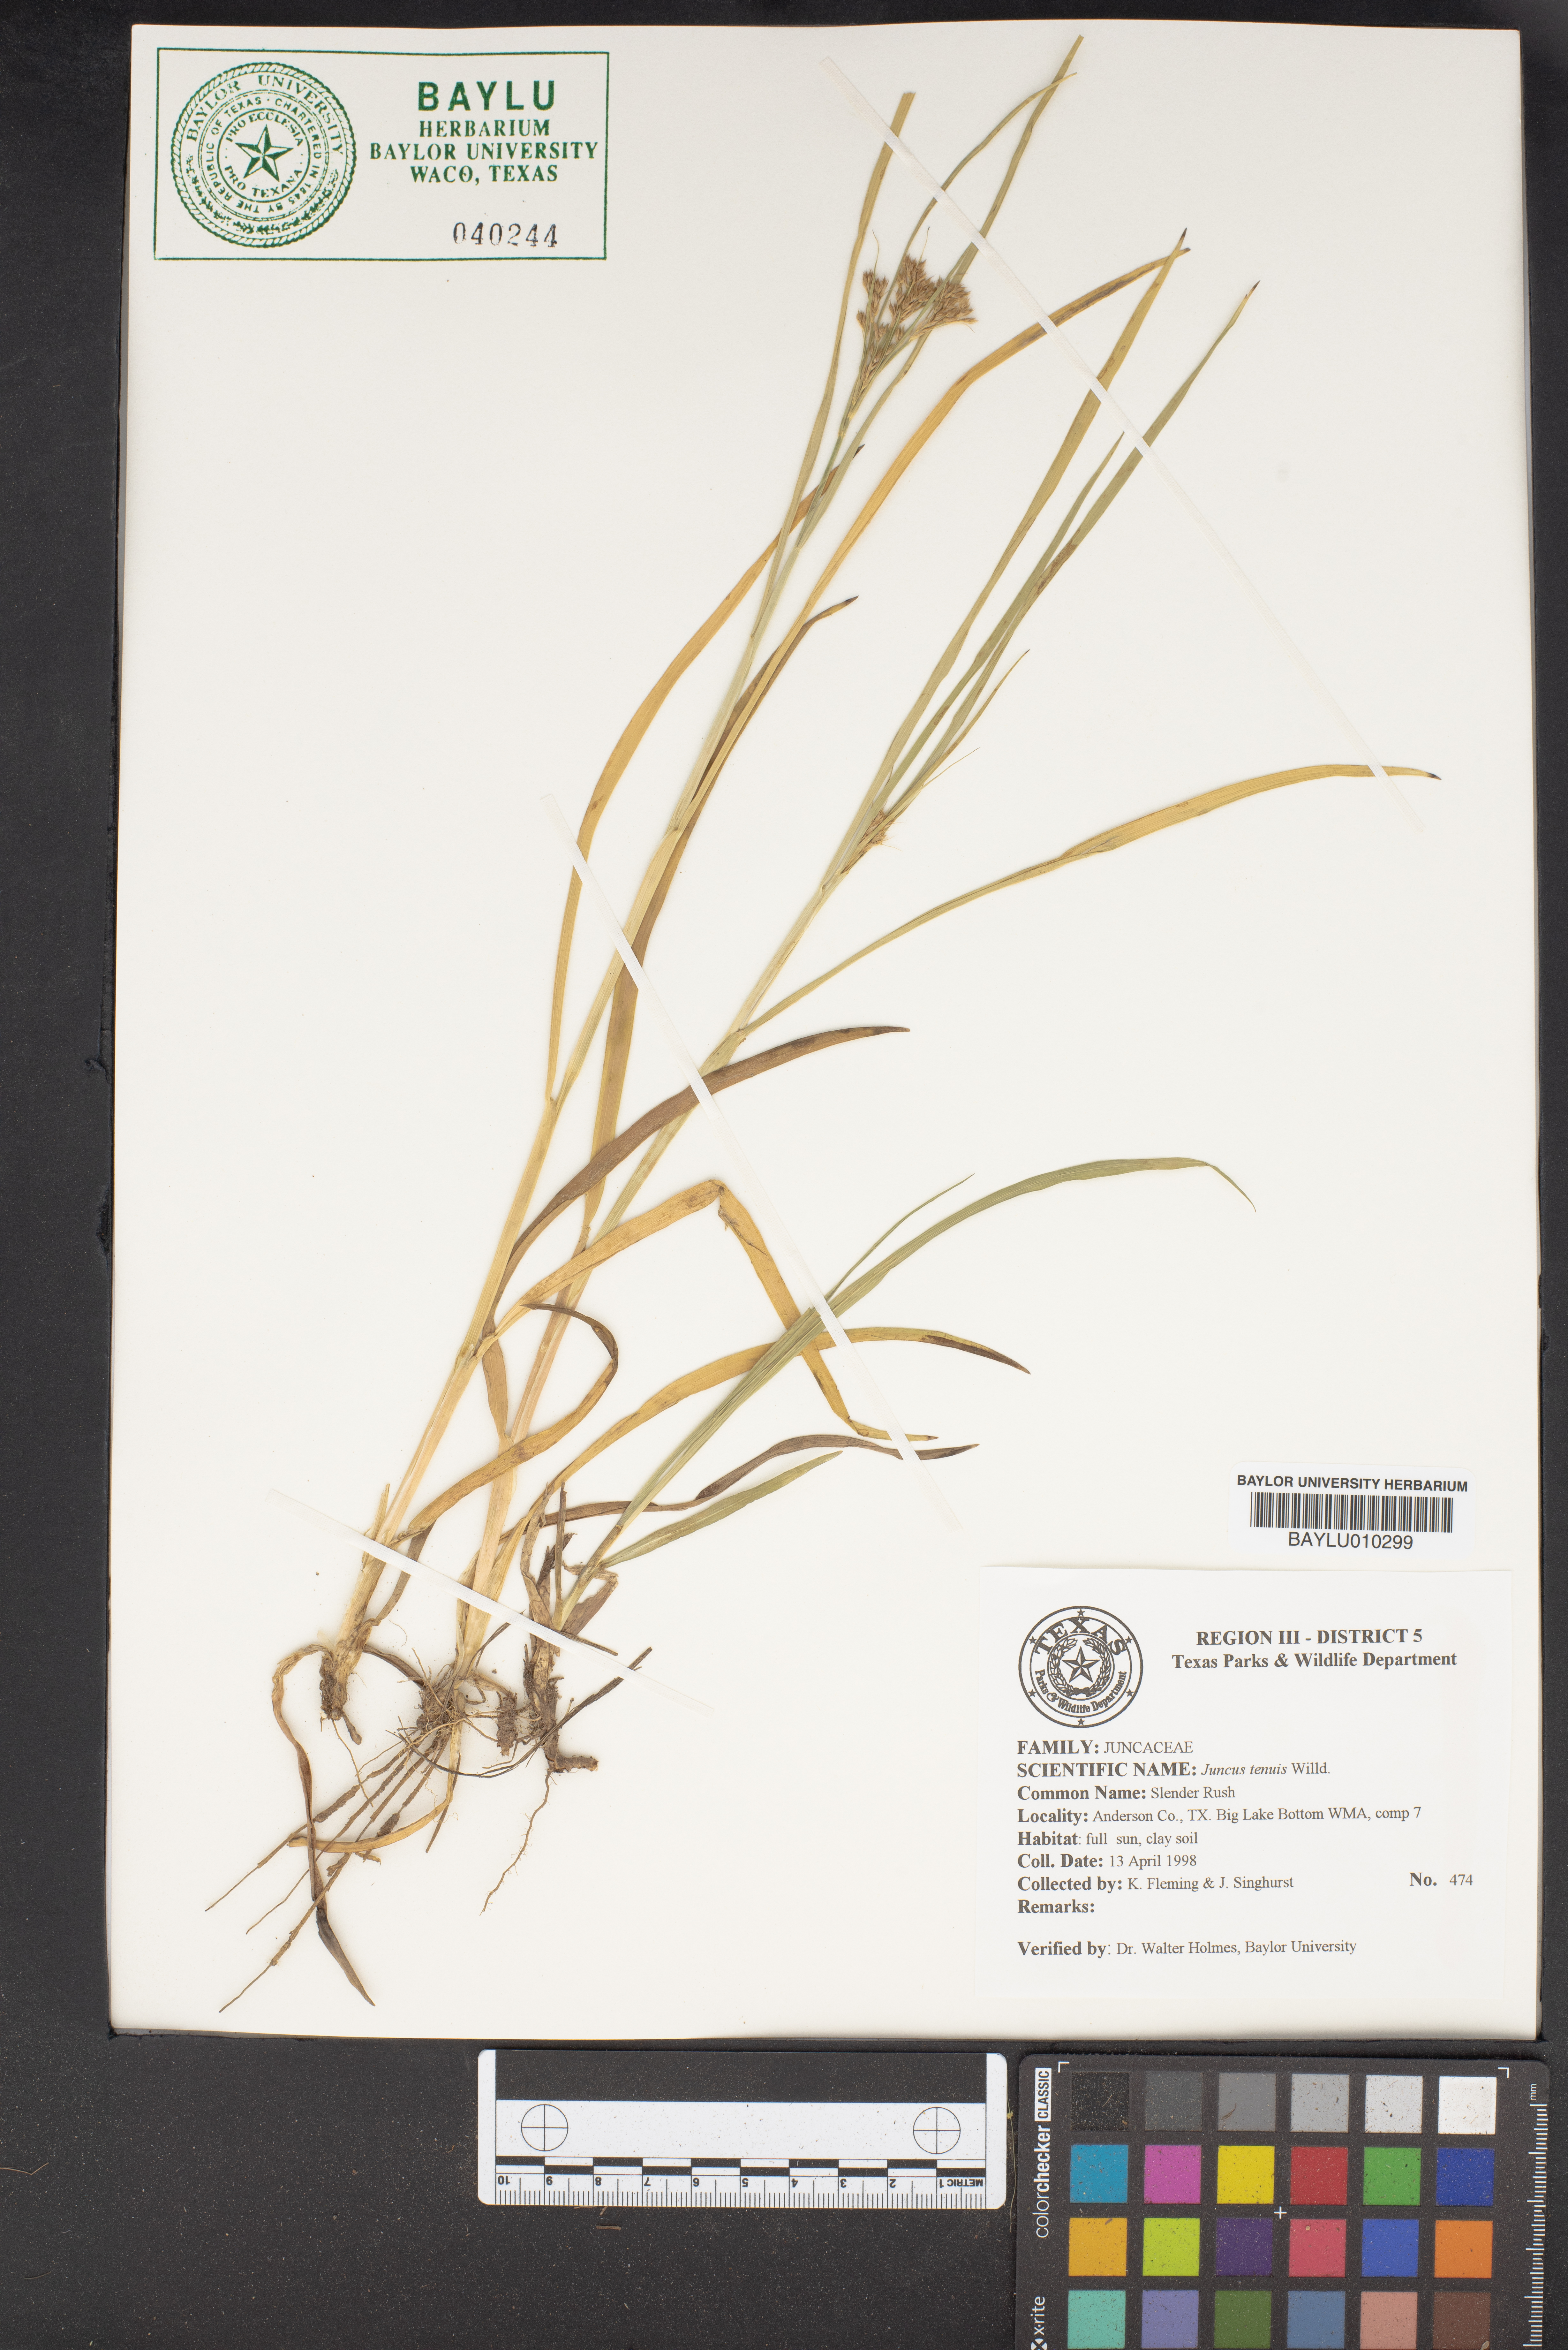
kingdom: Plantae
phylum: Tracheophyta
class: Liliopsida
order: Poales
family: Juncaceae
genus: Juncus
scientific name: Juncus tenuis
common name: Slender rush
